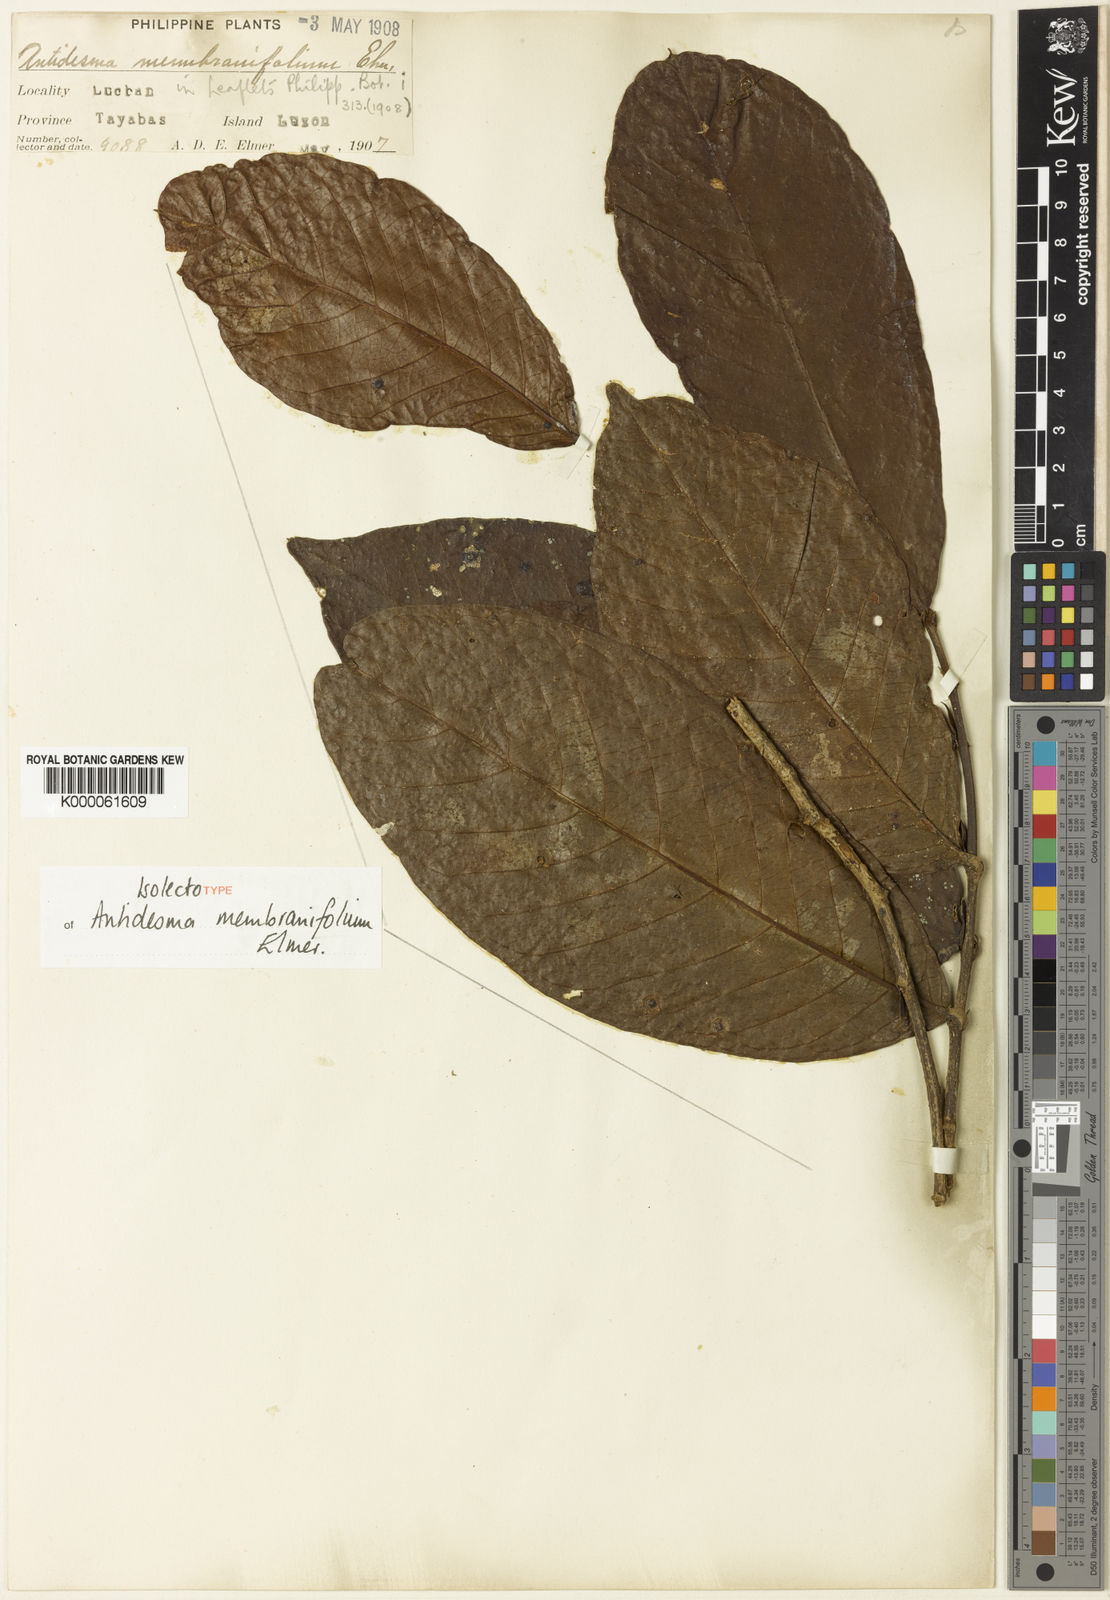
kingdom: Plantae
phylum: Tracheophyta
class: Magnoliopsida
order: Malpighiales
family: Phyllanthaceae
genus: Antidesma
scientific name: Antidesma tomentosum
